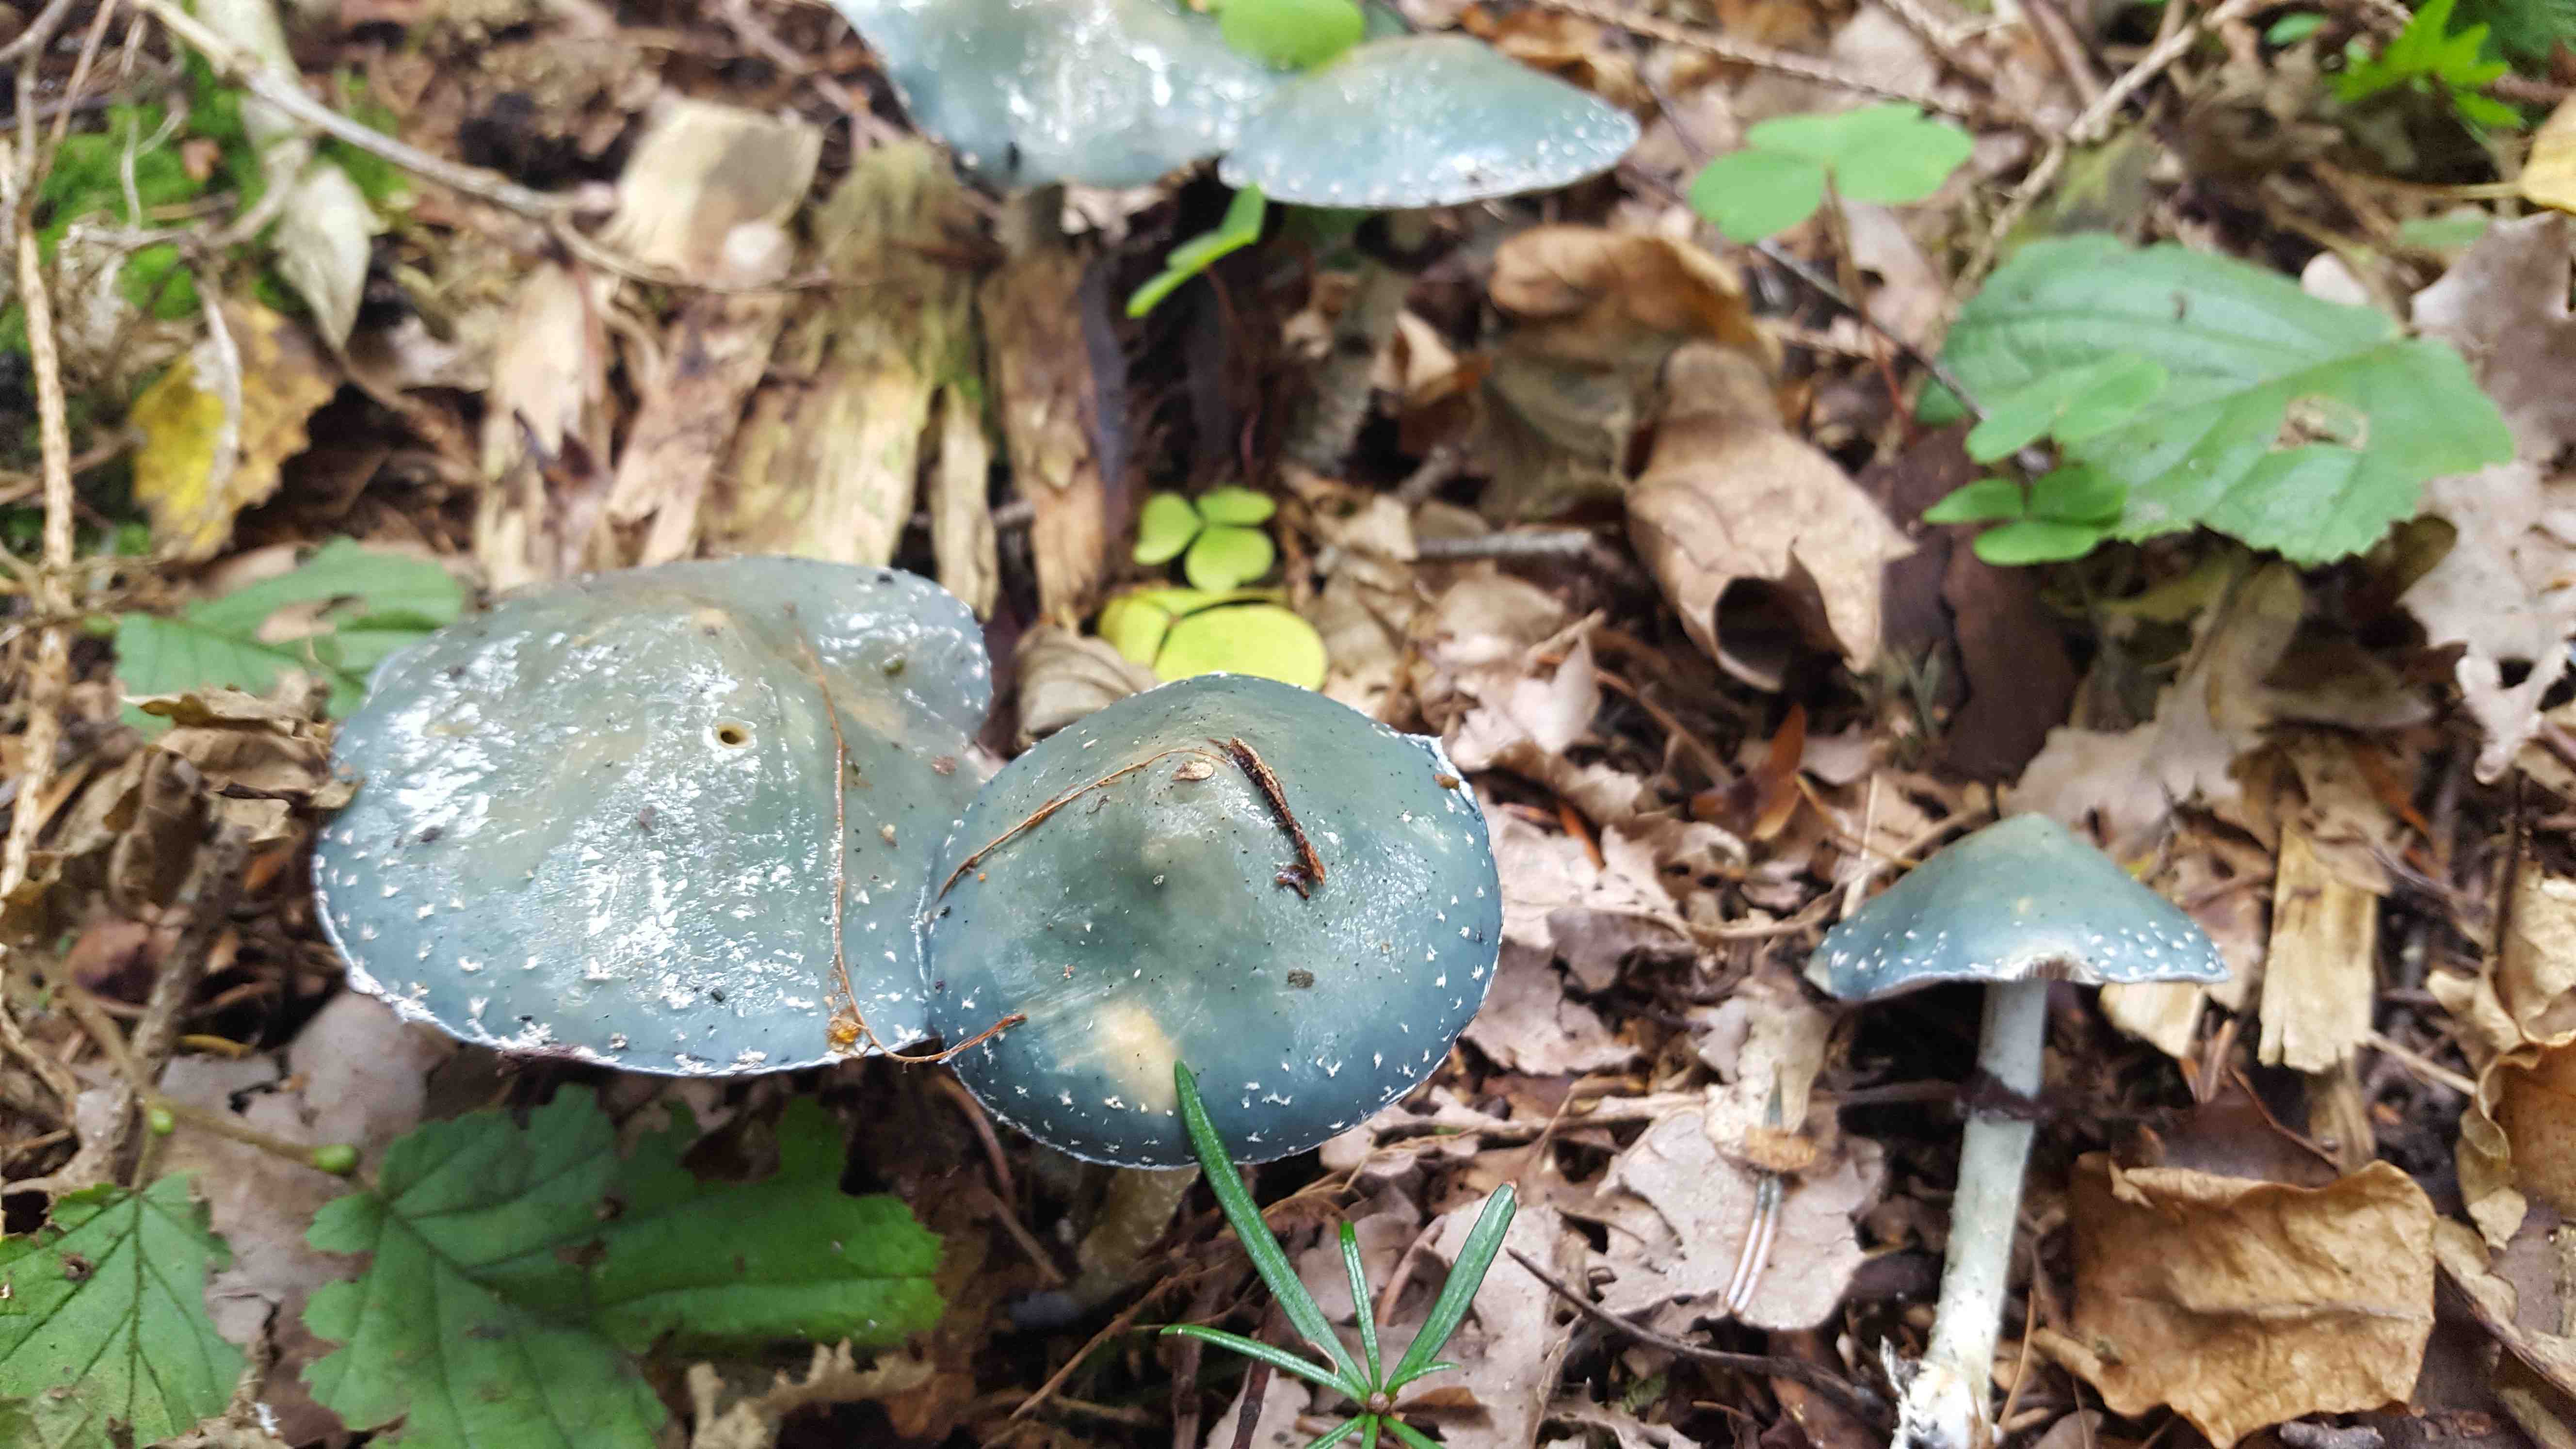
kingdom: Fungi
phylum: Basidiomycota
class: Agaricomycetes
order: Agaricales
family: Strophariaceae
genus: Stropharia
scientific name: Stropharia aeruginosa
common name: spanskgrøn bredblad
